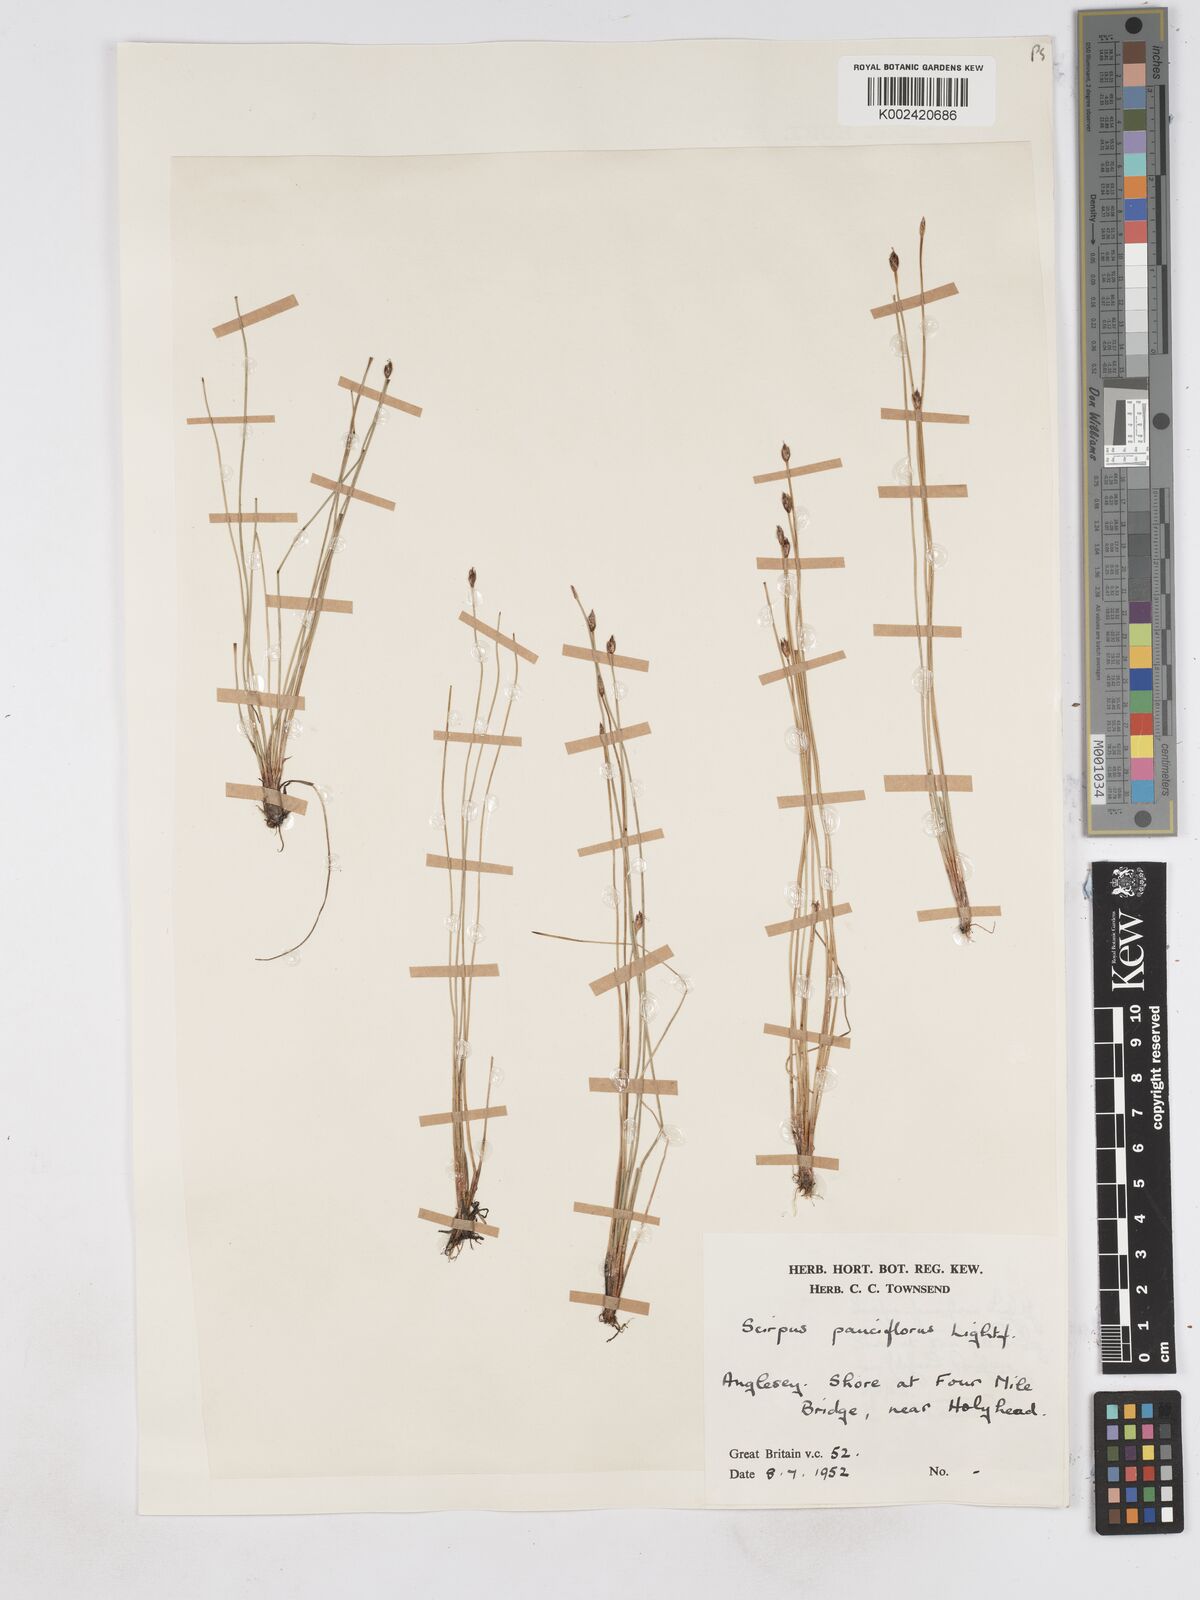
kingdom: Plantae
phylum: Tracheophyta
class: Liliopsida
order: Poales
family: Cyperaceae
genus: Eleocharis
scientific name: Eleocharis quinqueflora
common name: Few-flowered spike-rush
